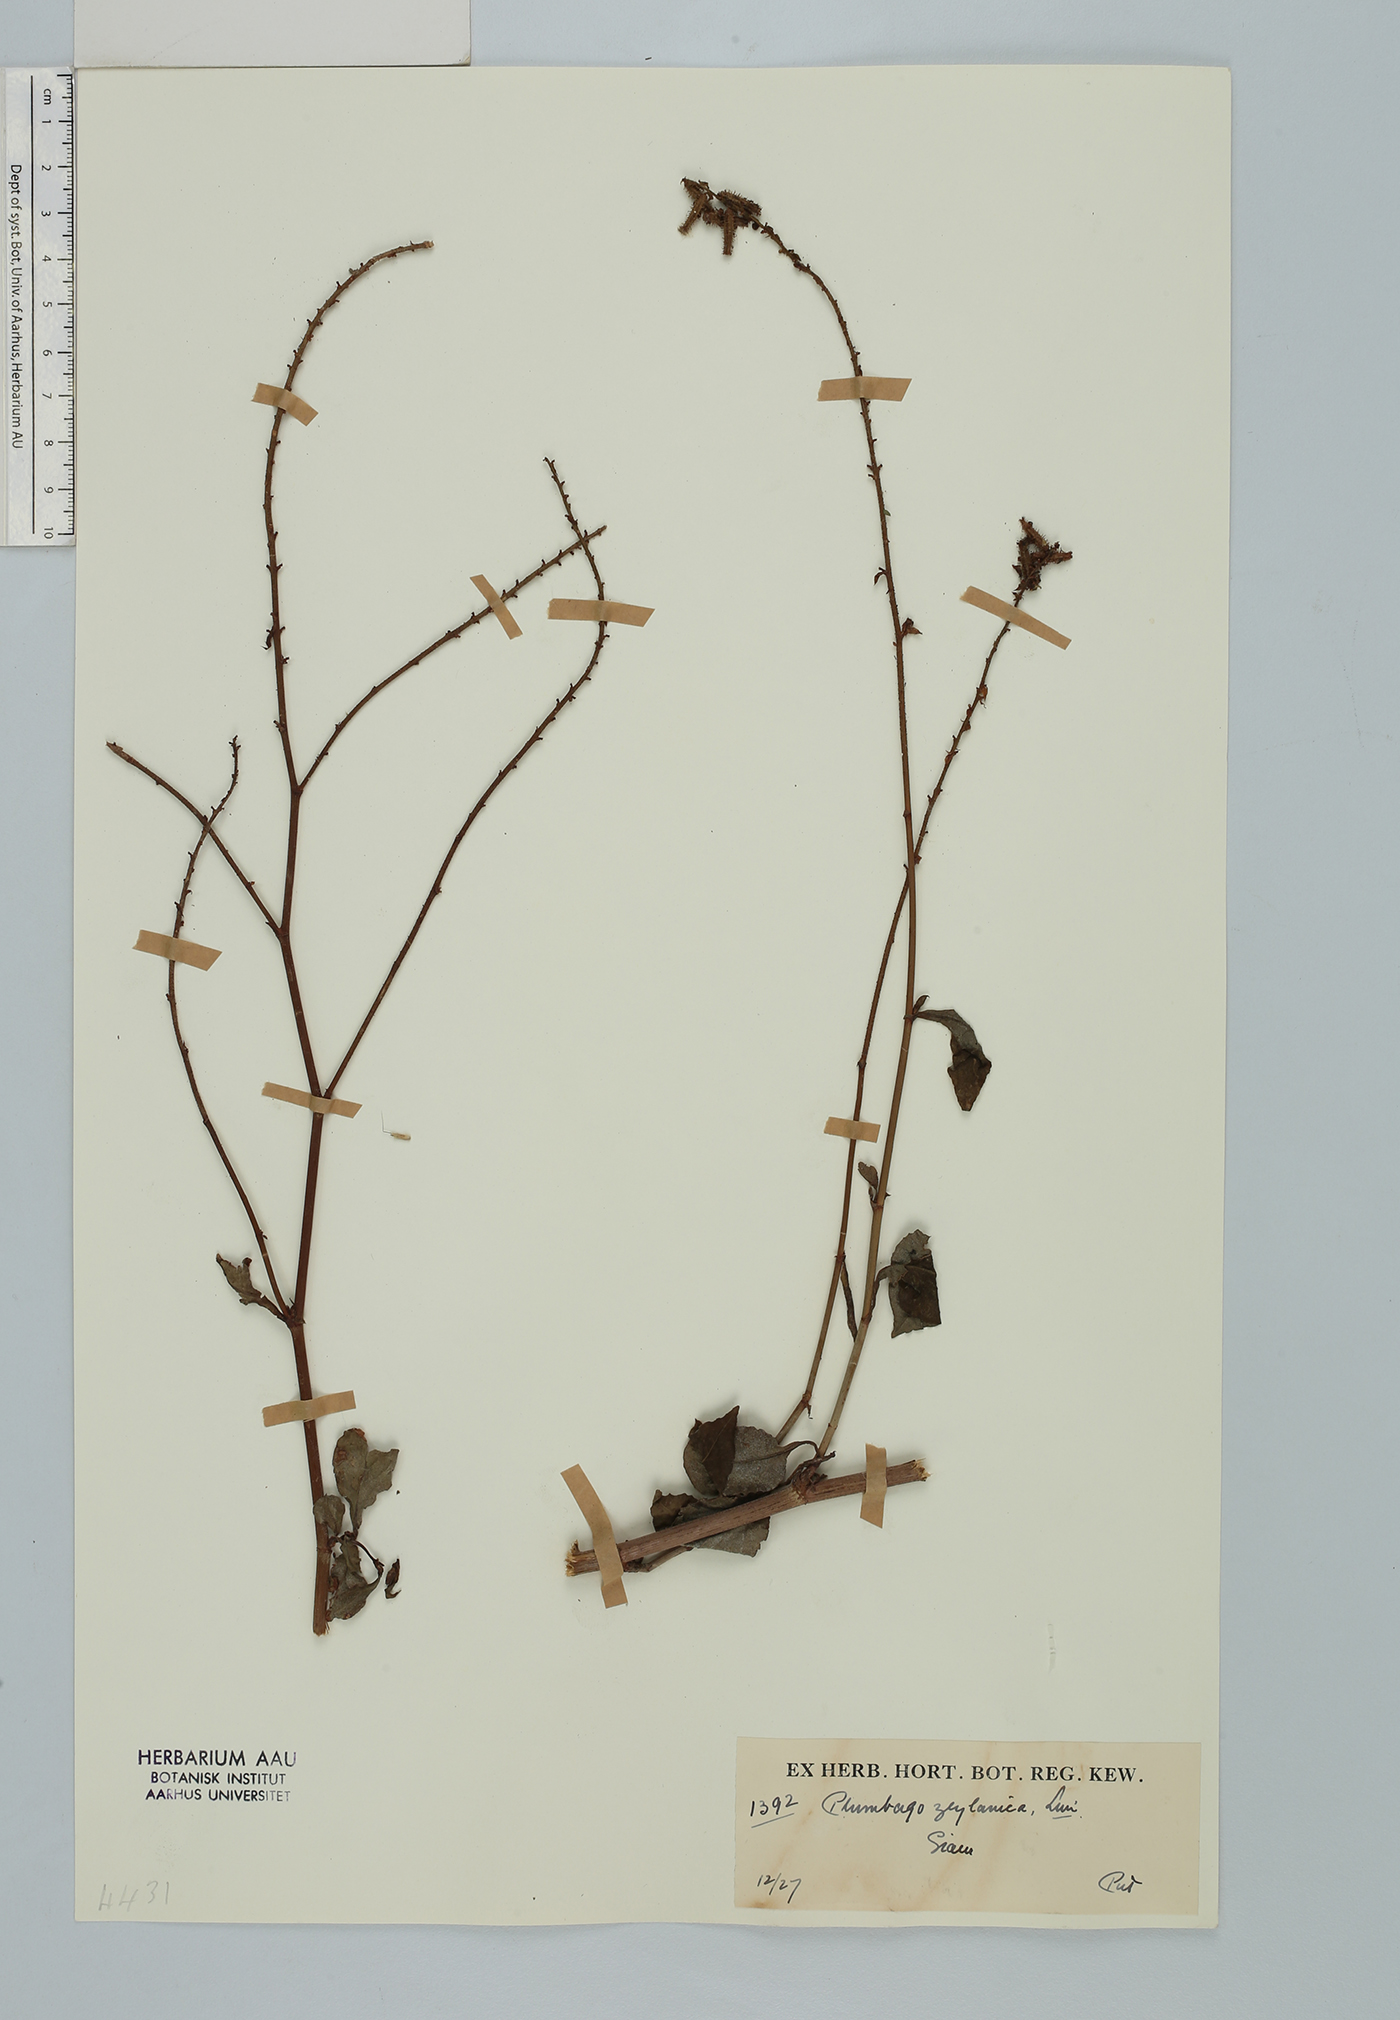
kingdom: Plantae
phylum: Tracheophyta
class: Magnoliopsida
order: Caryophyllales
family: Plumbaginaceae
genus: Plumbago
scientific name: Plumbago zeylanica
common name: Doctorbush
